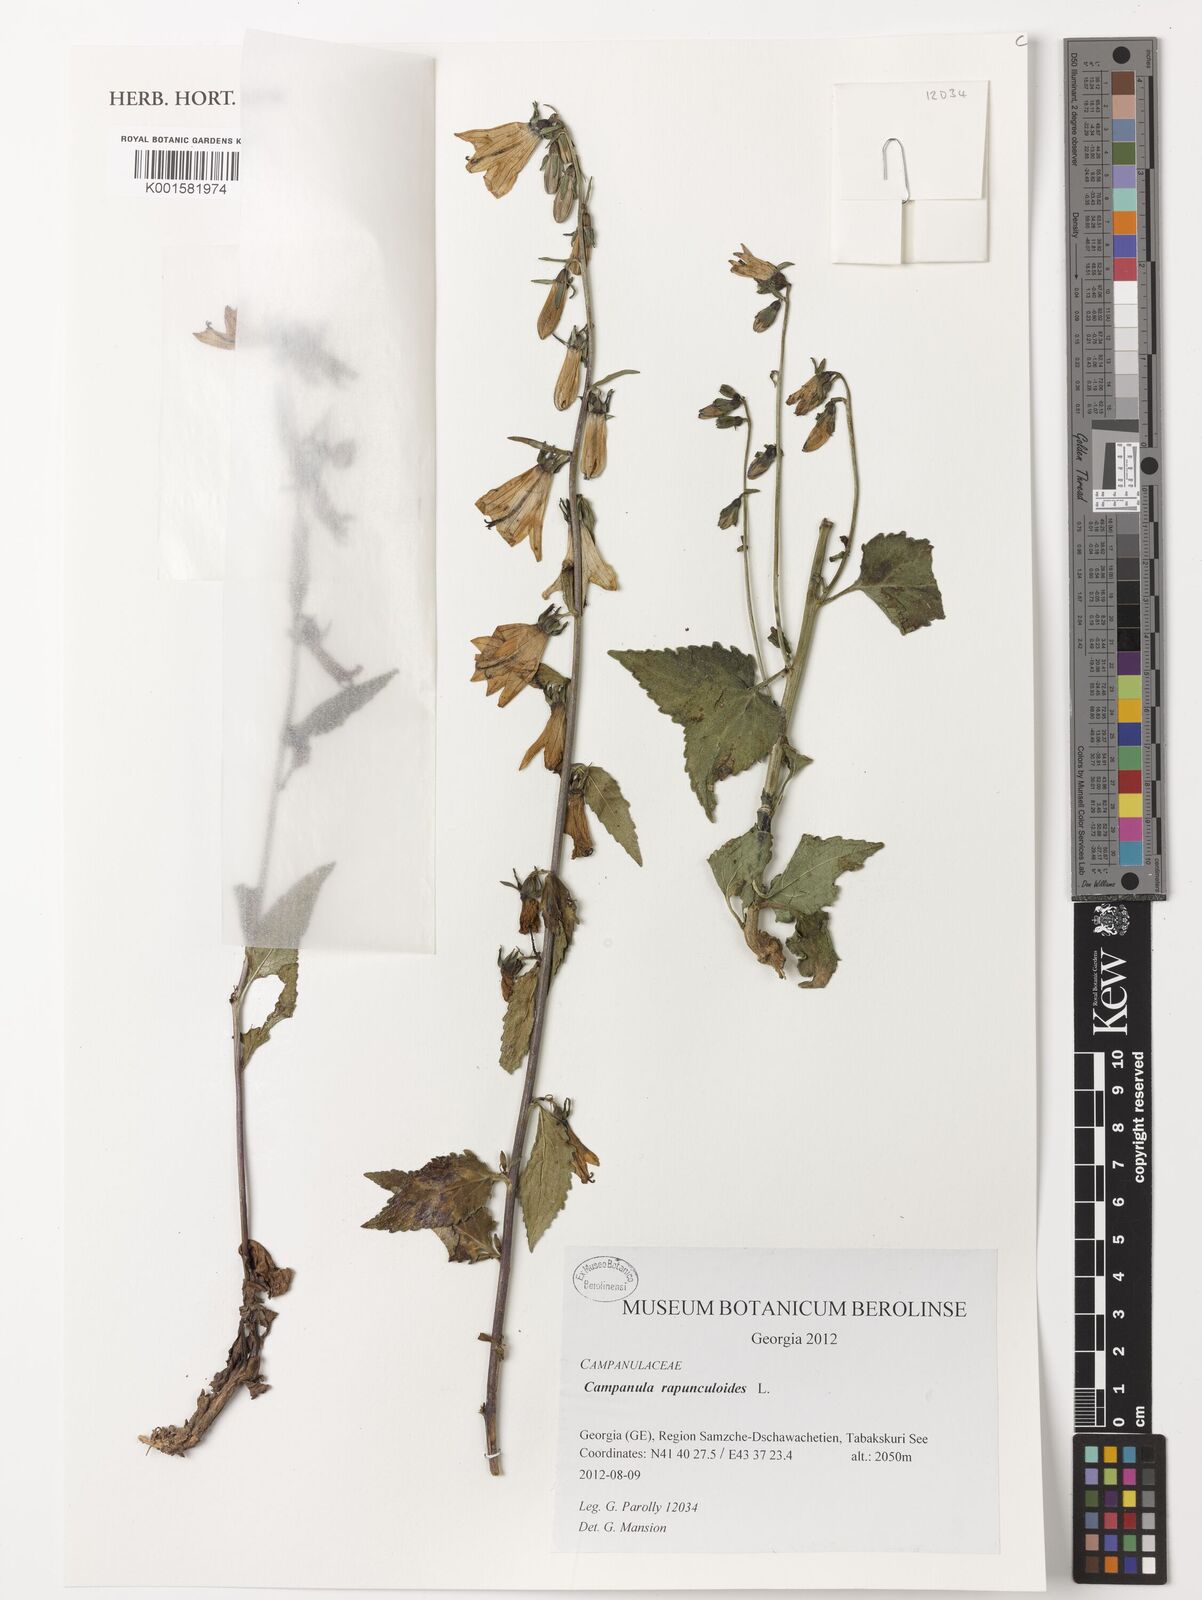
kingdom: Plantae
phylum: Tracheophyta
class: Magnoliopsida
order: Asterales
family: Campanulaceae
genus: Campanula
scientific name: Campanula rapunculoides
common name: Creeping bellflower
